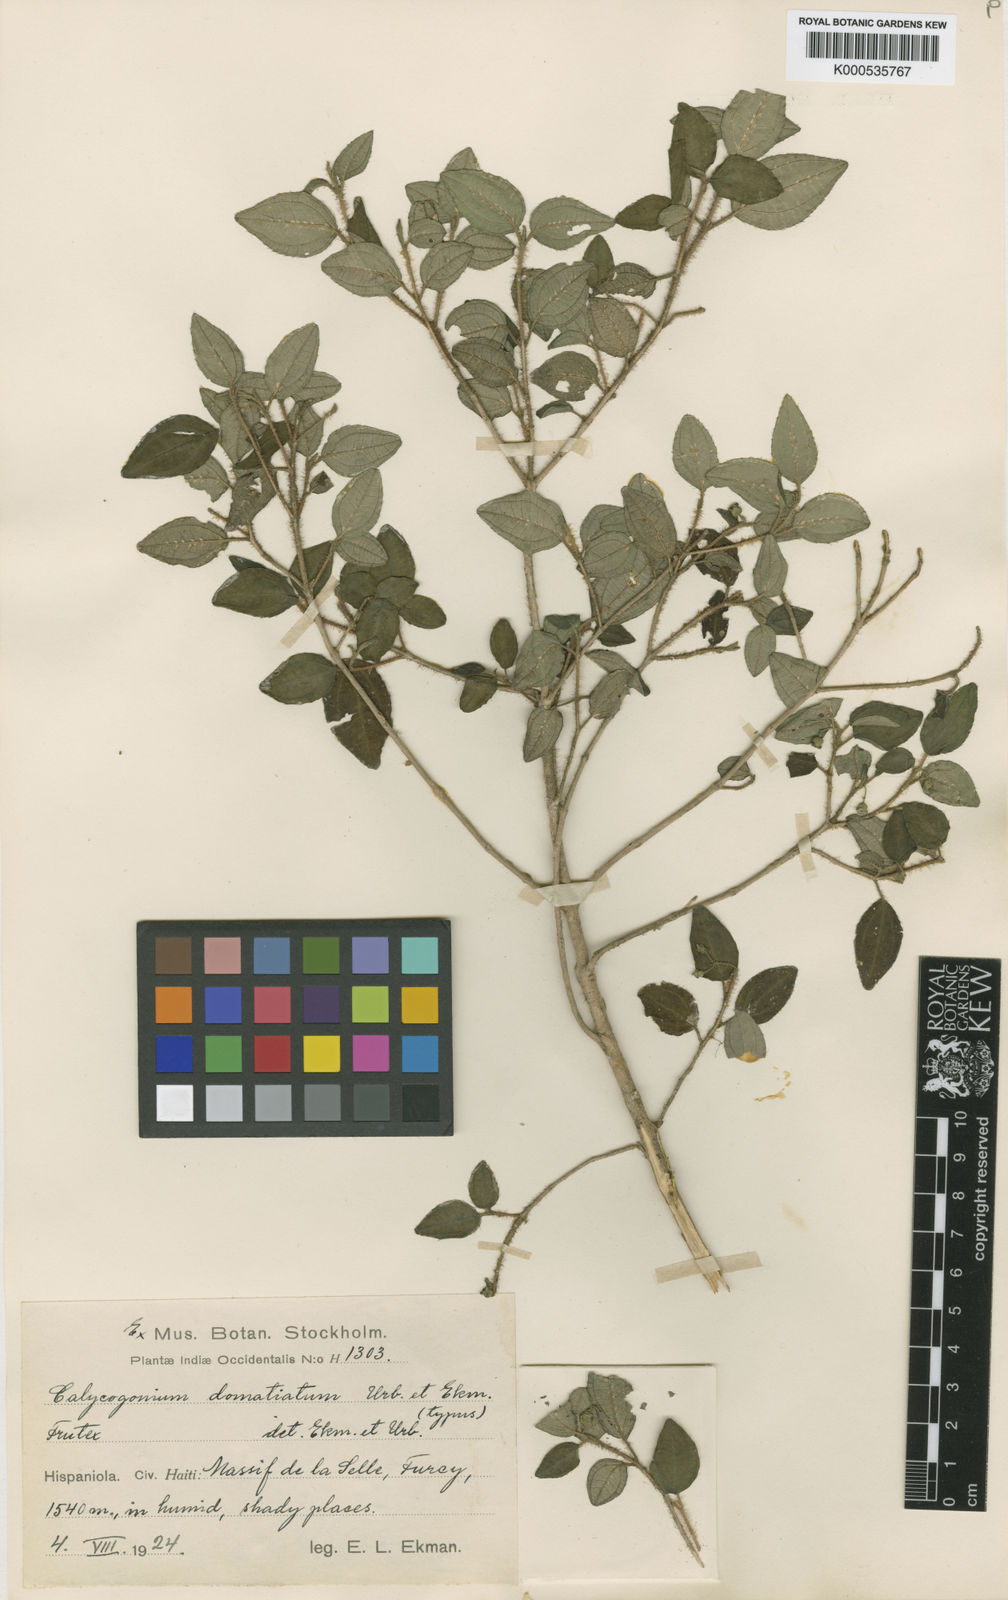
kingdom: Plantae
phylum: Tracheophyta
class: Magnoliopsida
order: Myrtales
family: Melastomataceae
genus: Miconia
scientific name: Miconia domatiata
